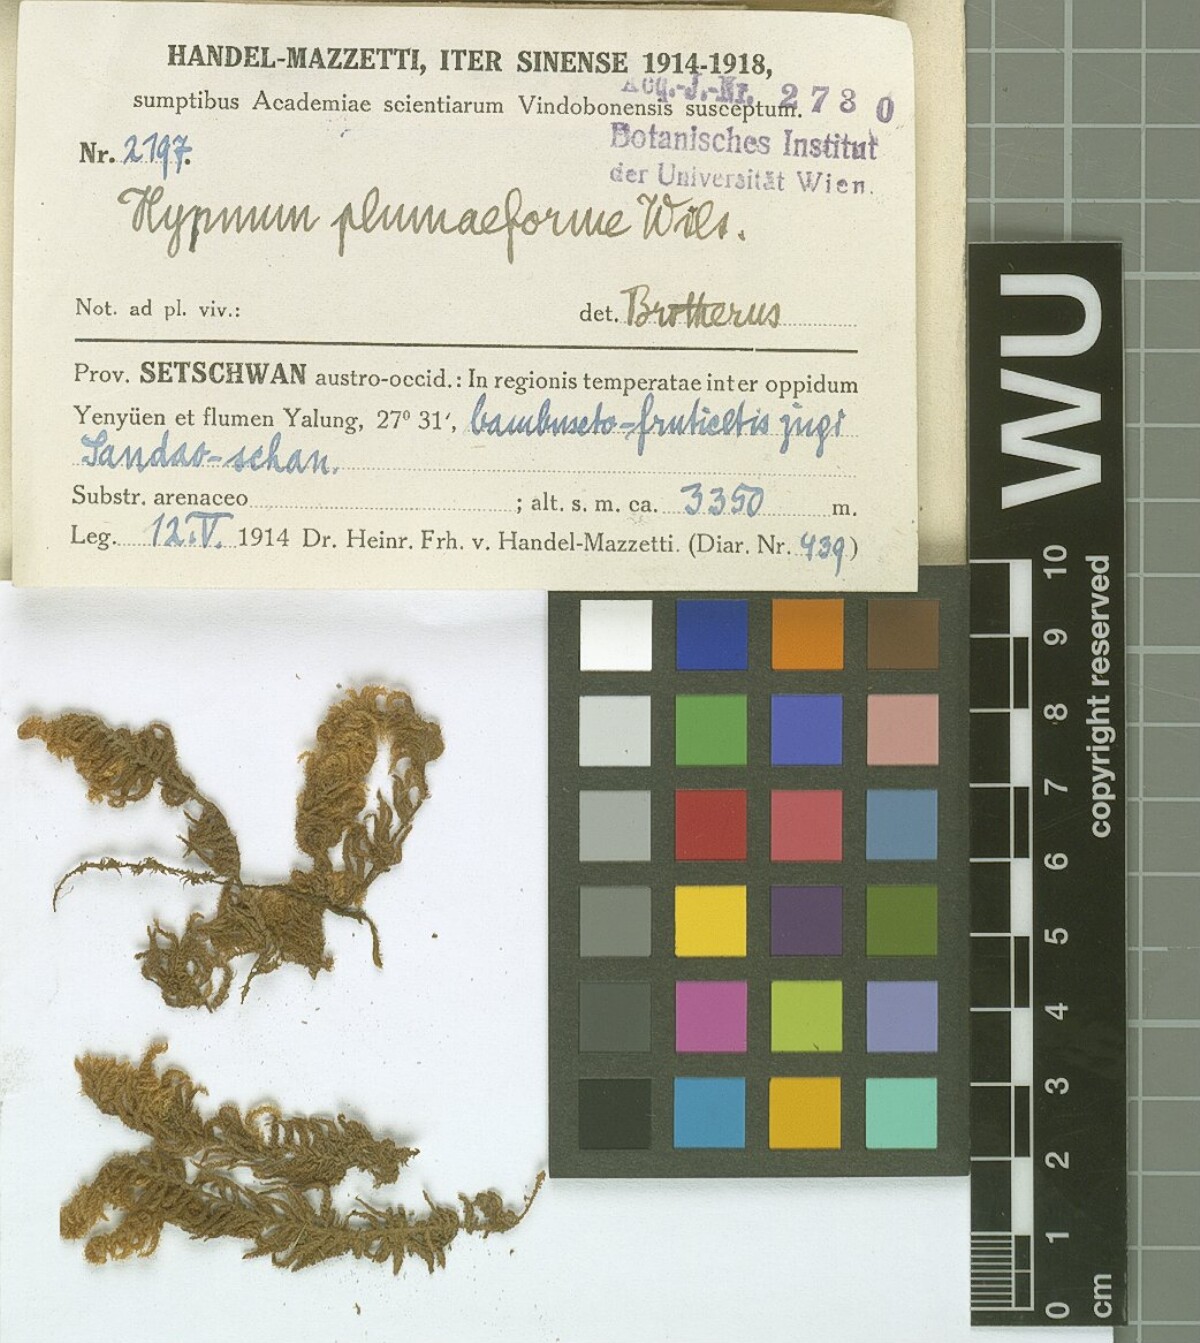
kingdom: Plantae
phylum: Bryophyta
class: Bryopsida
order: Hypnales
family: Hypnaceae
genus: Hypnum
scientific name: Hypnum plumaeforme
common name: Cypress-leaved plaitmoss
